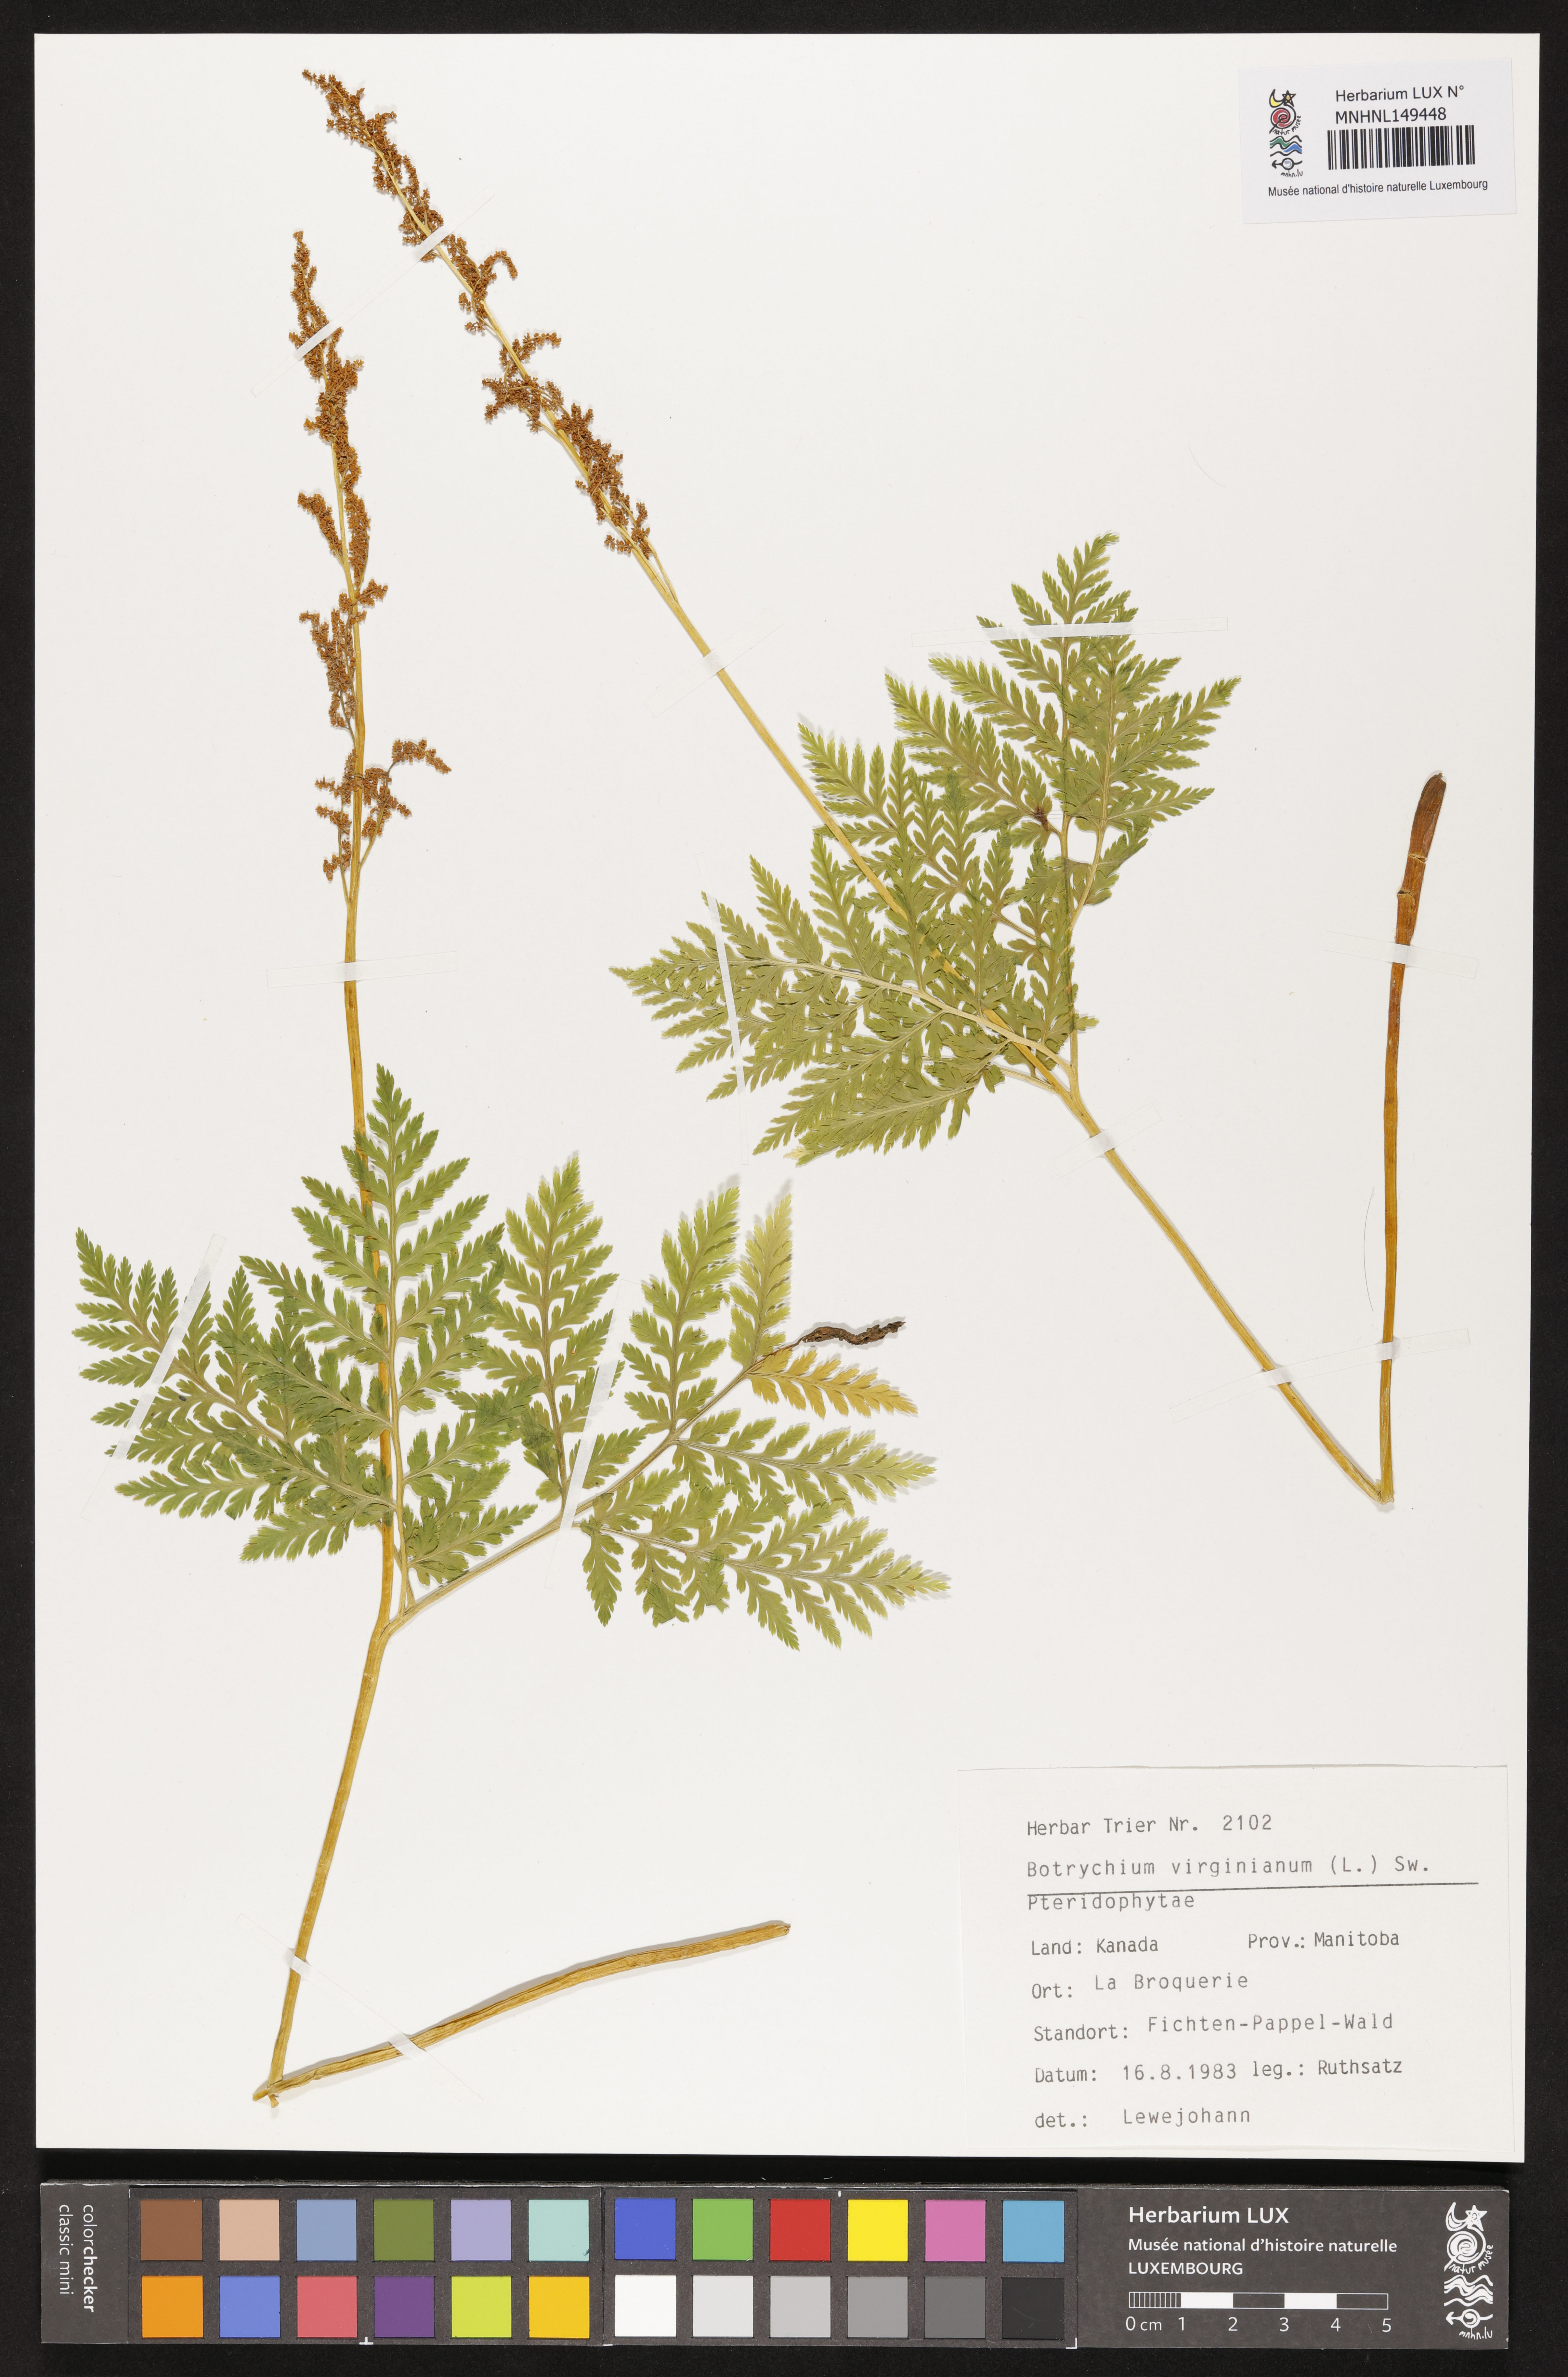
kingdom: Plantae
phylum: Tracheophyta
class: Polypodiopsida
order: Ophioglossales
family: Ophioglossaceae
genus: Botrypus
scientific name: Botrypus virginianus
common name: Common grapefern
